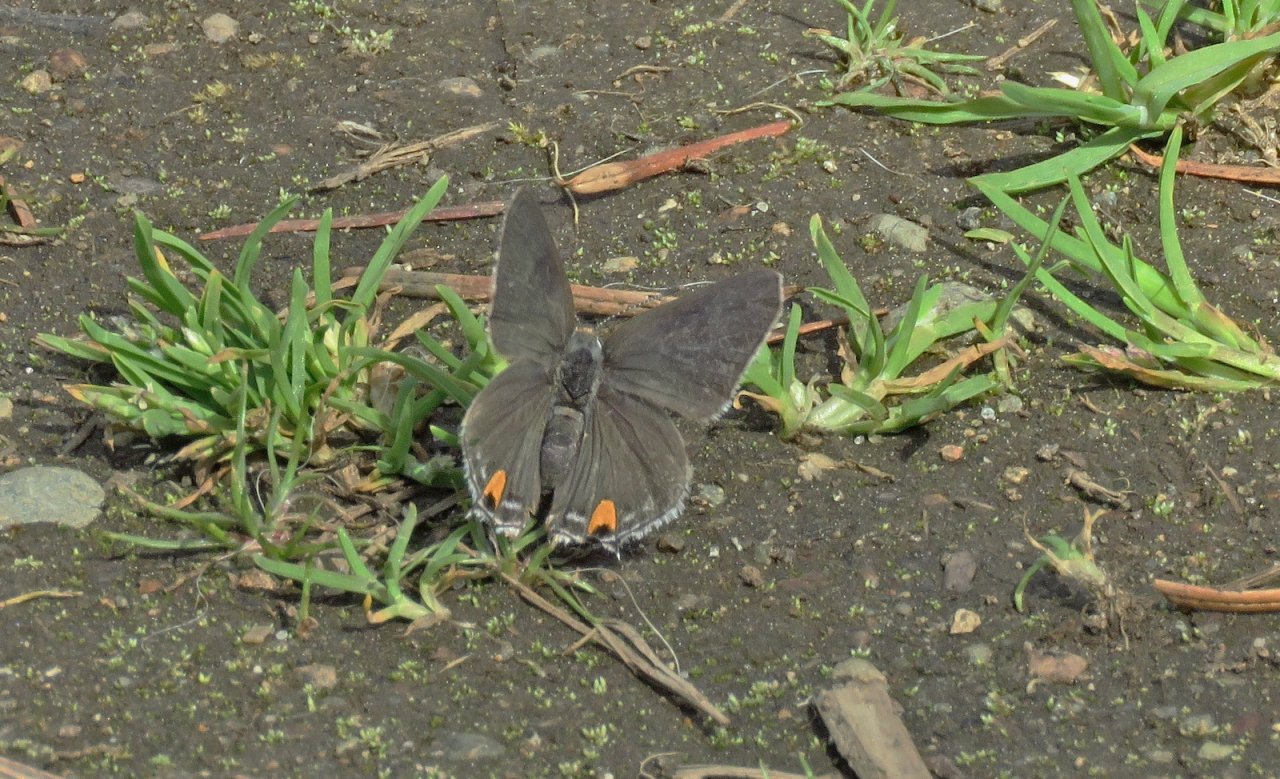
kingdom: Animalia
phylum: Arthropoda
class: Insecta
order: Lepidoptera
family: Lycaenidae
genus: Strymon
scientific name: Strymon melinus
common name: Gray Hairstreak
